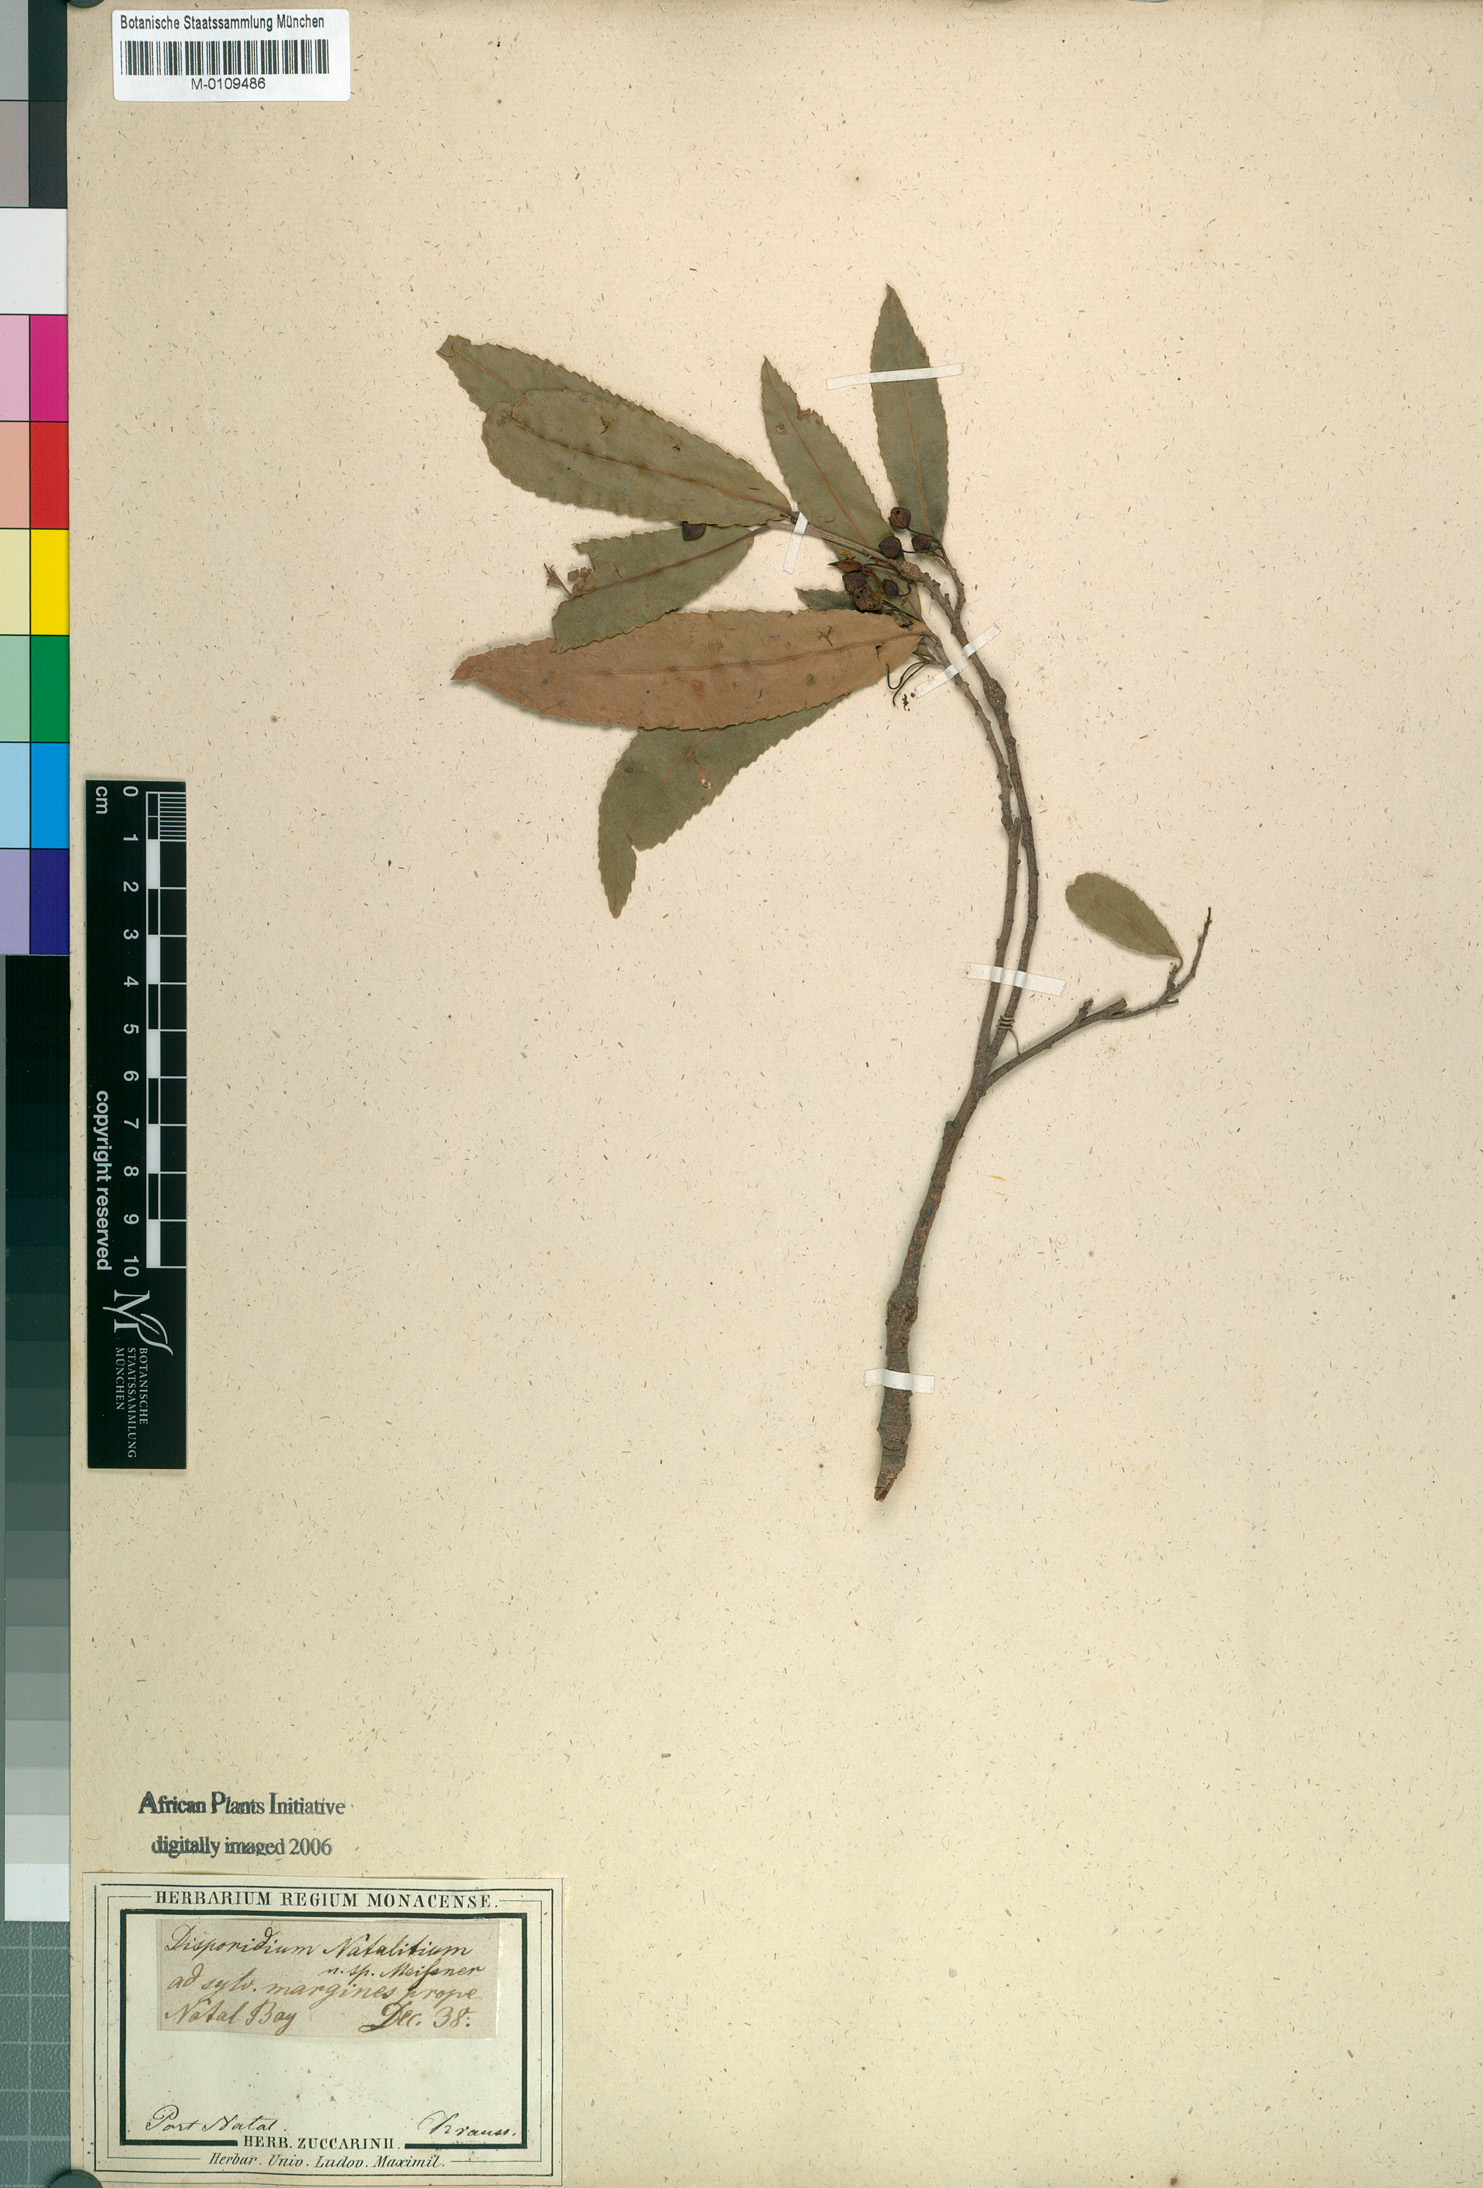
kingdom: Plantae
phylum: Tracheophyta
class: Magnoliopsida
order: Malpighiales
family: Ochnaceae
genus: Ochna
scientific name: Ochna natalitia
